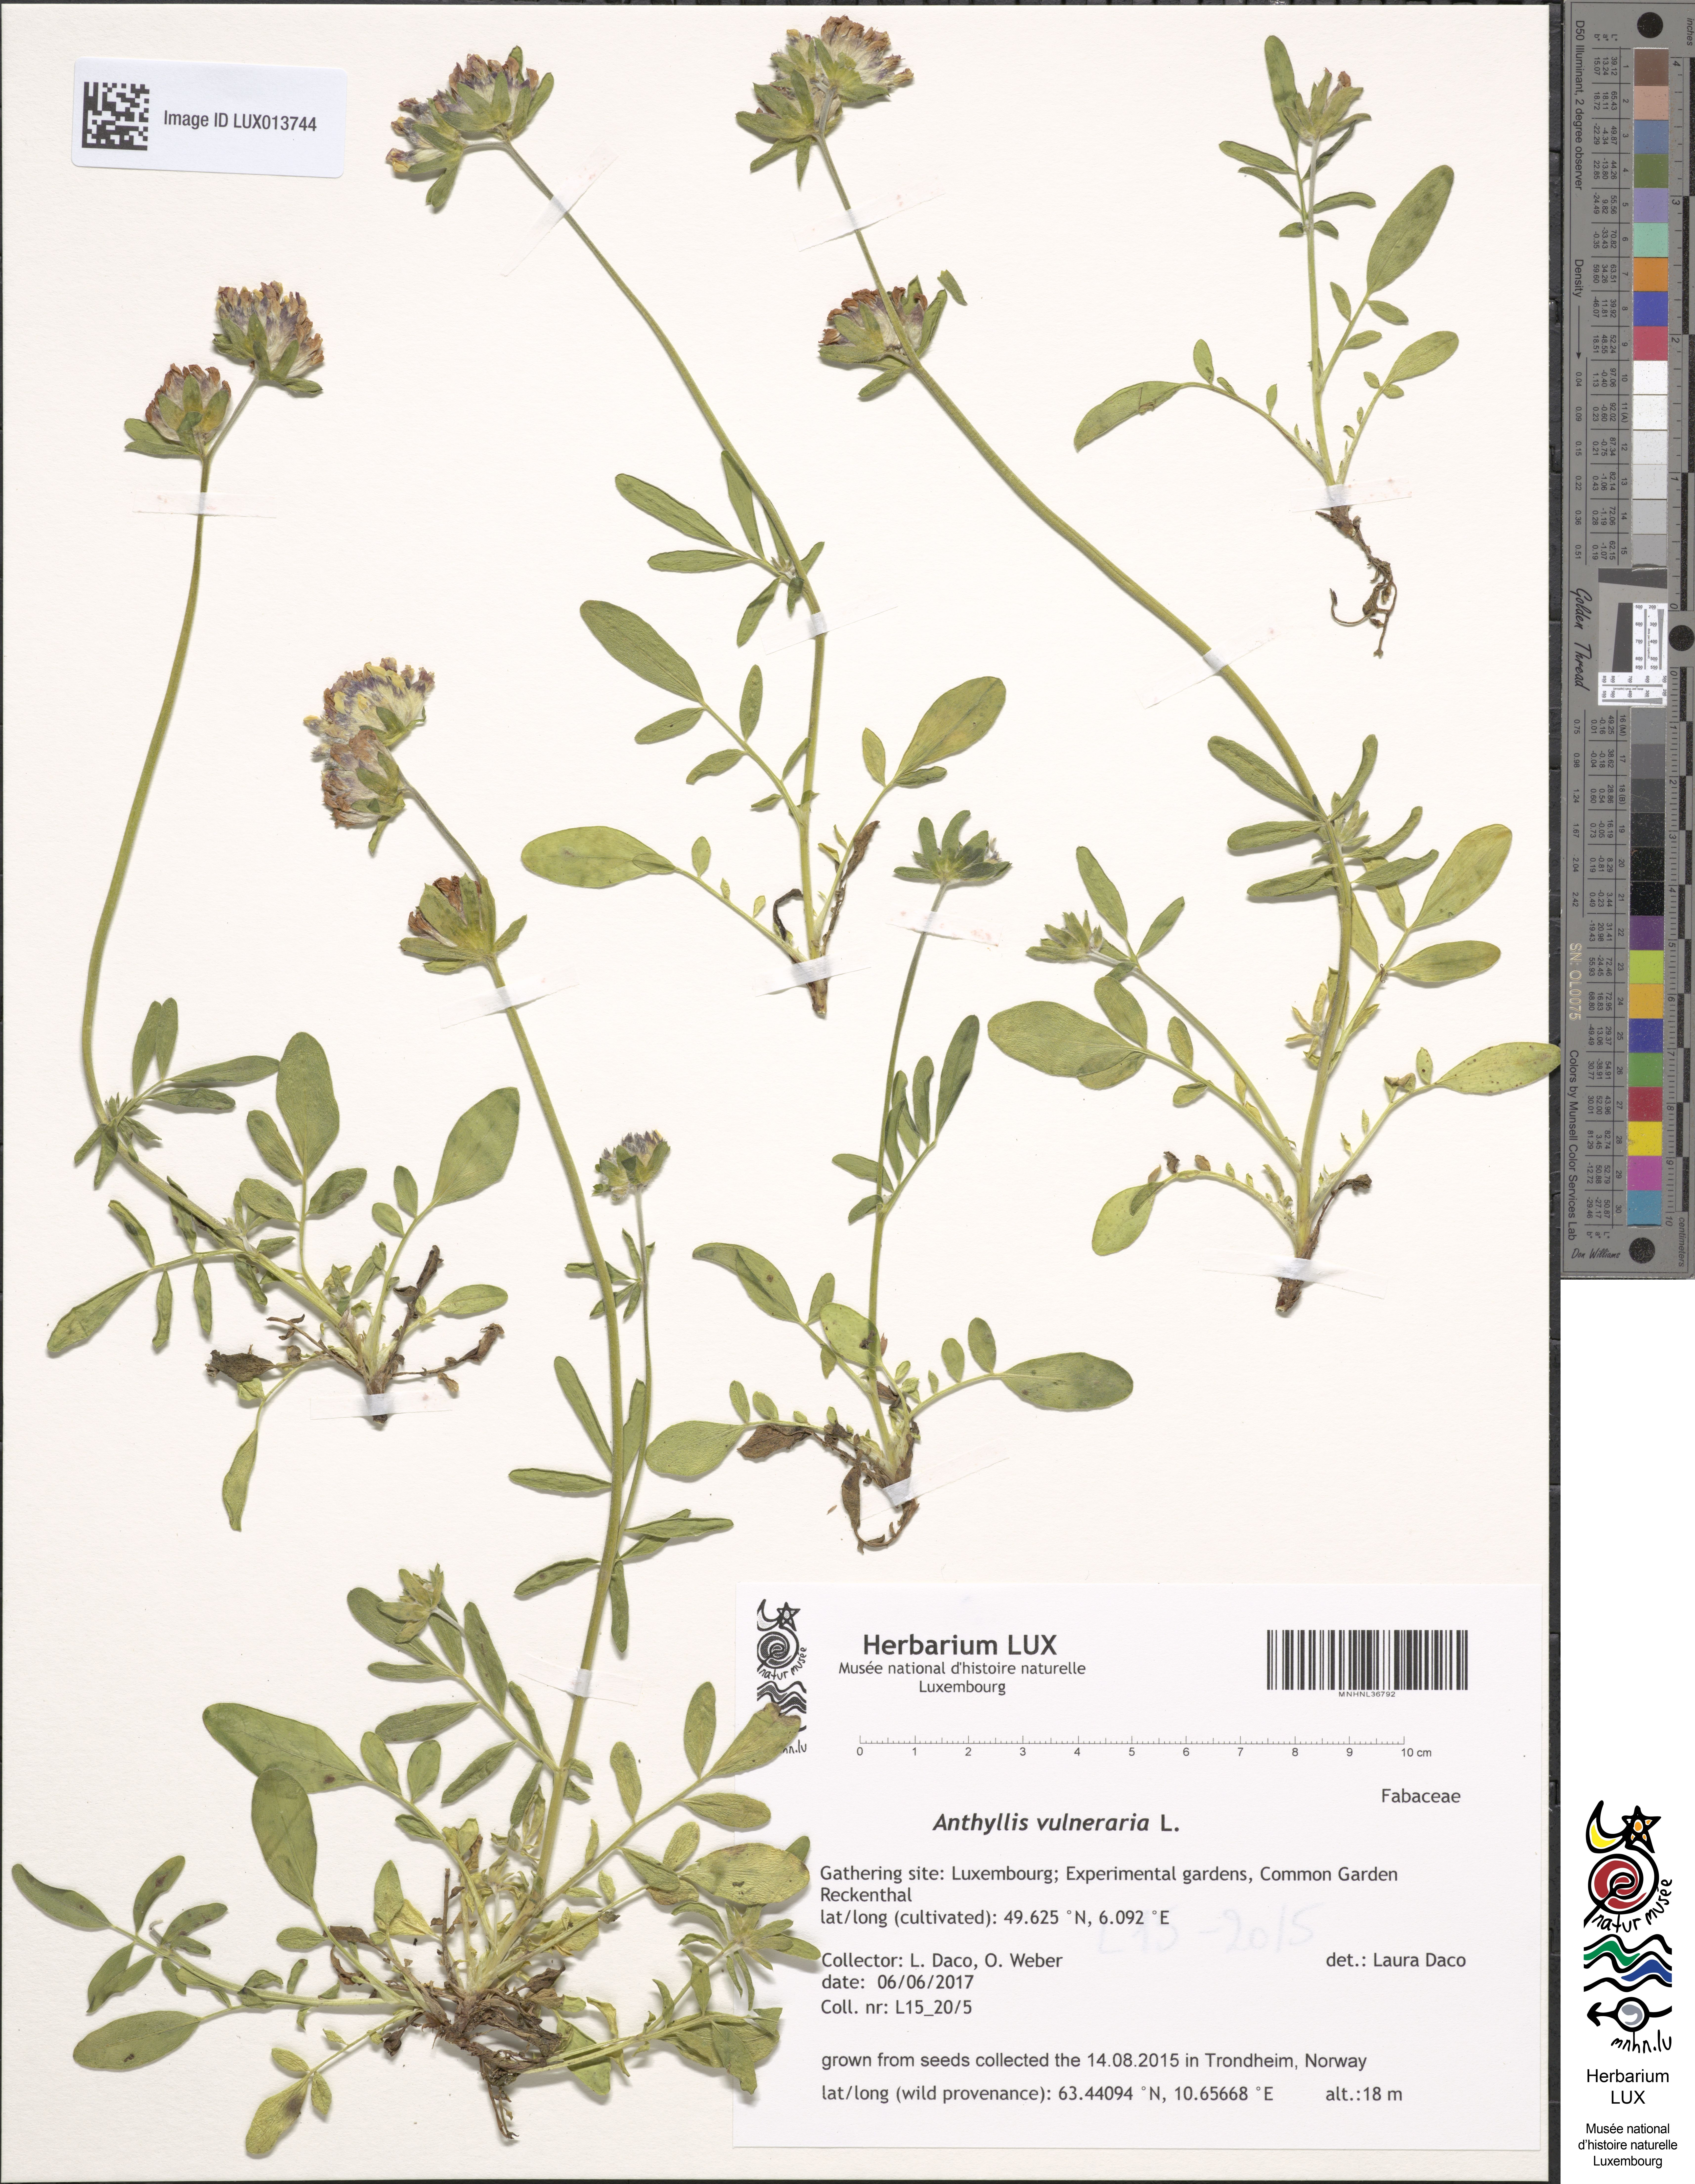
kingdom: Plantae
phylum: Tracheophyta
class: Magnoliopsida
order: Fabales
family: Fabaceae
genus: Anthyllis
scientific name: Anthyllis vulneraria
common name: Kidney vetch
